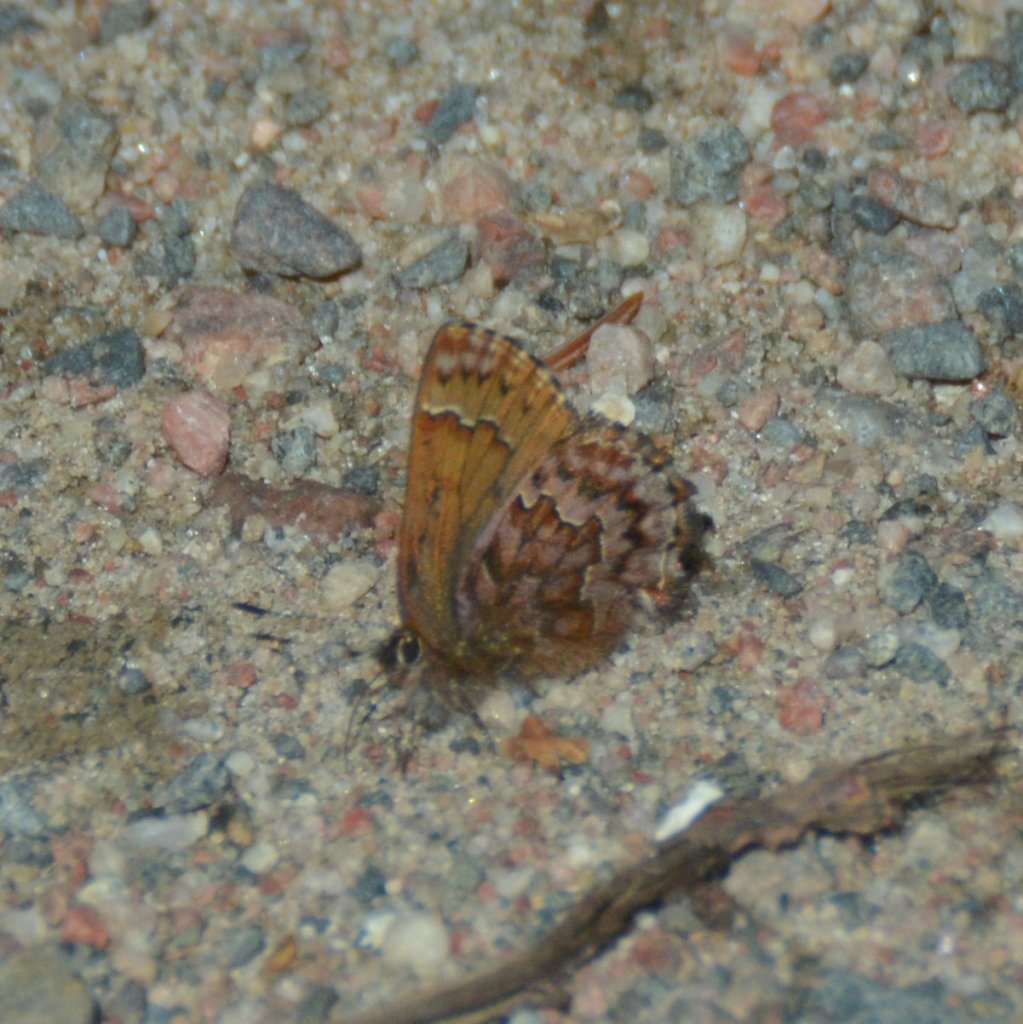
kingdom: Animalia
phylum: Arthropoda
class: Insecta
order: Lepidoptera
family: Lycaenidae
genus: Incisalia
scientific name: Incisalia eryphon
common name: Western Pine Elfin
